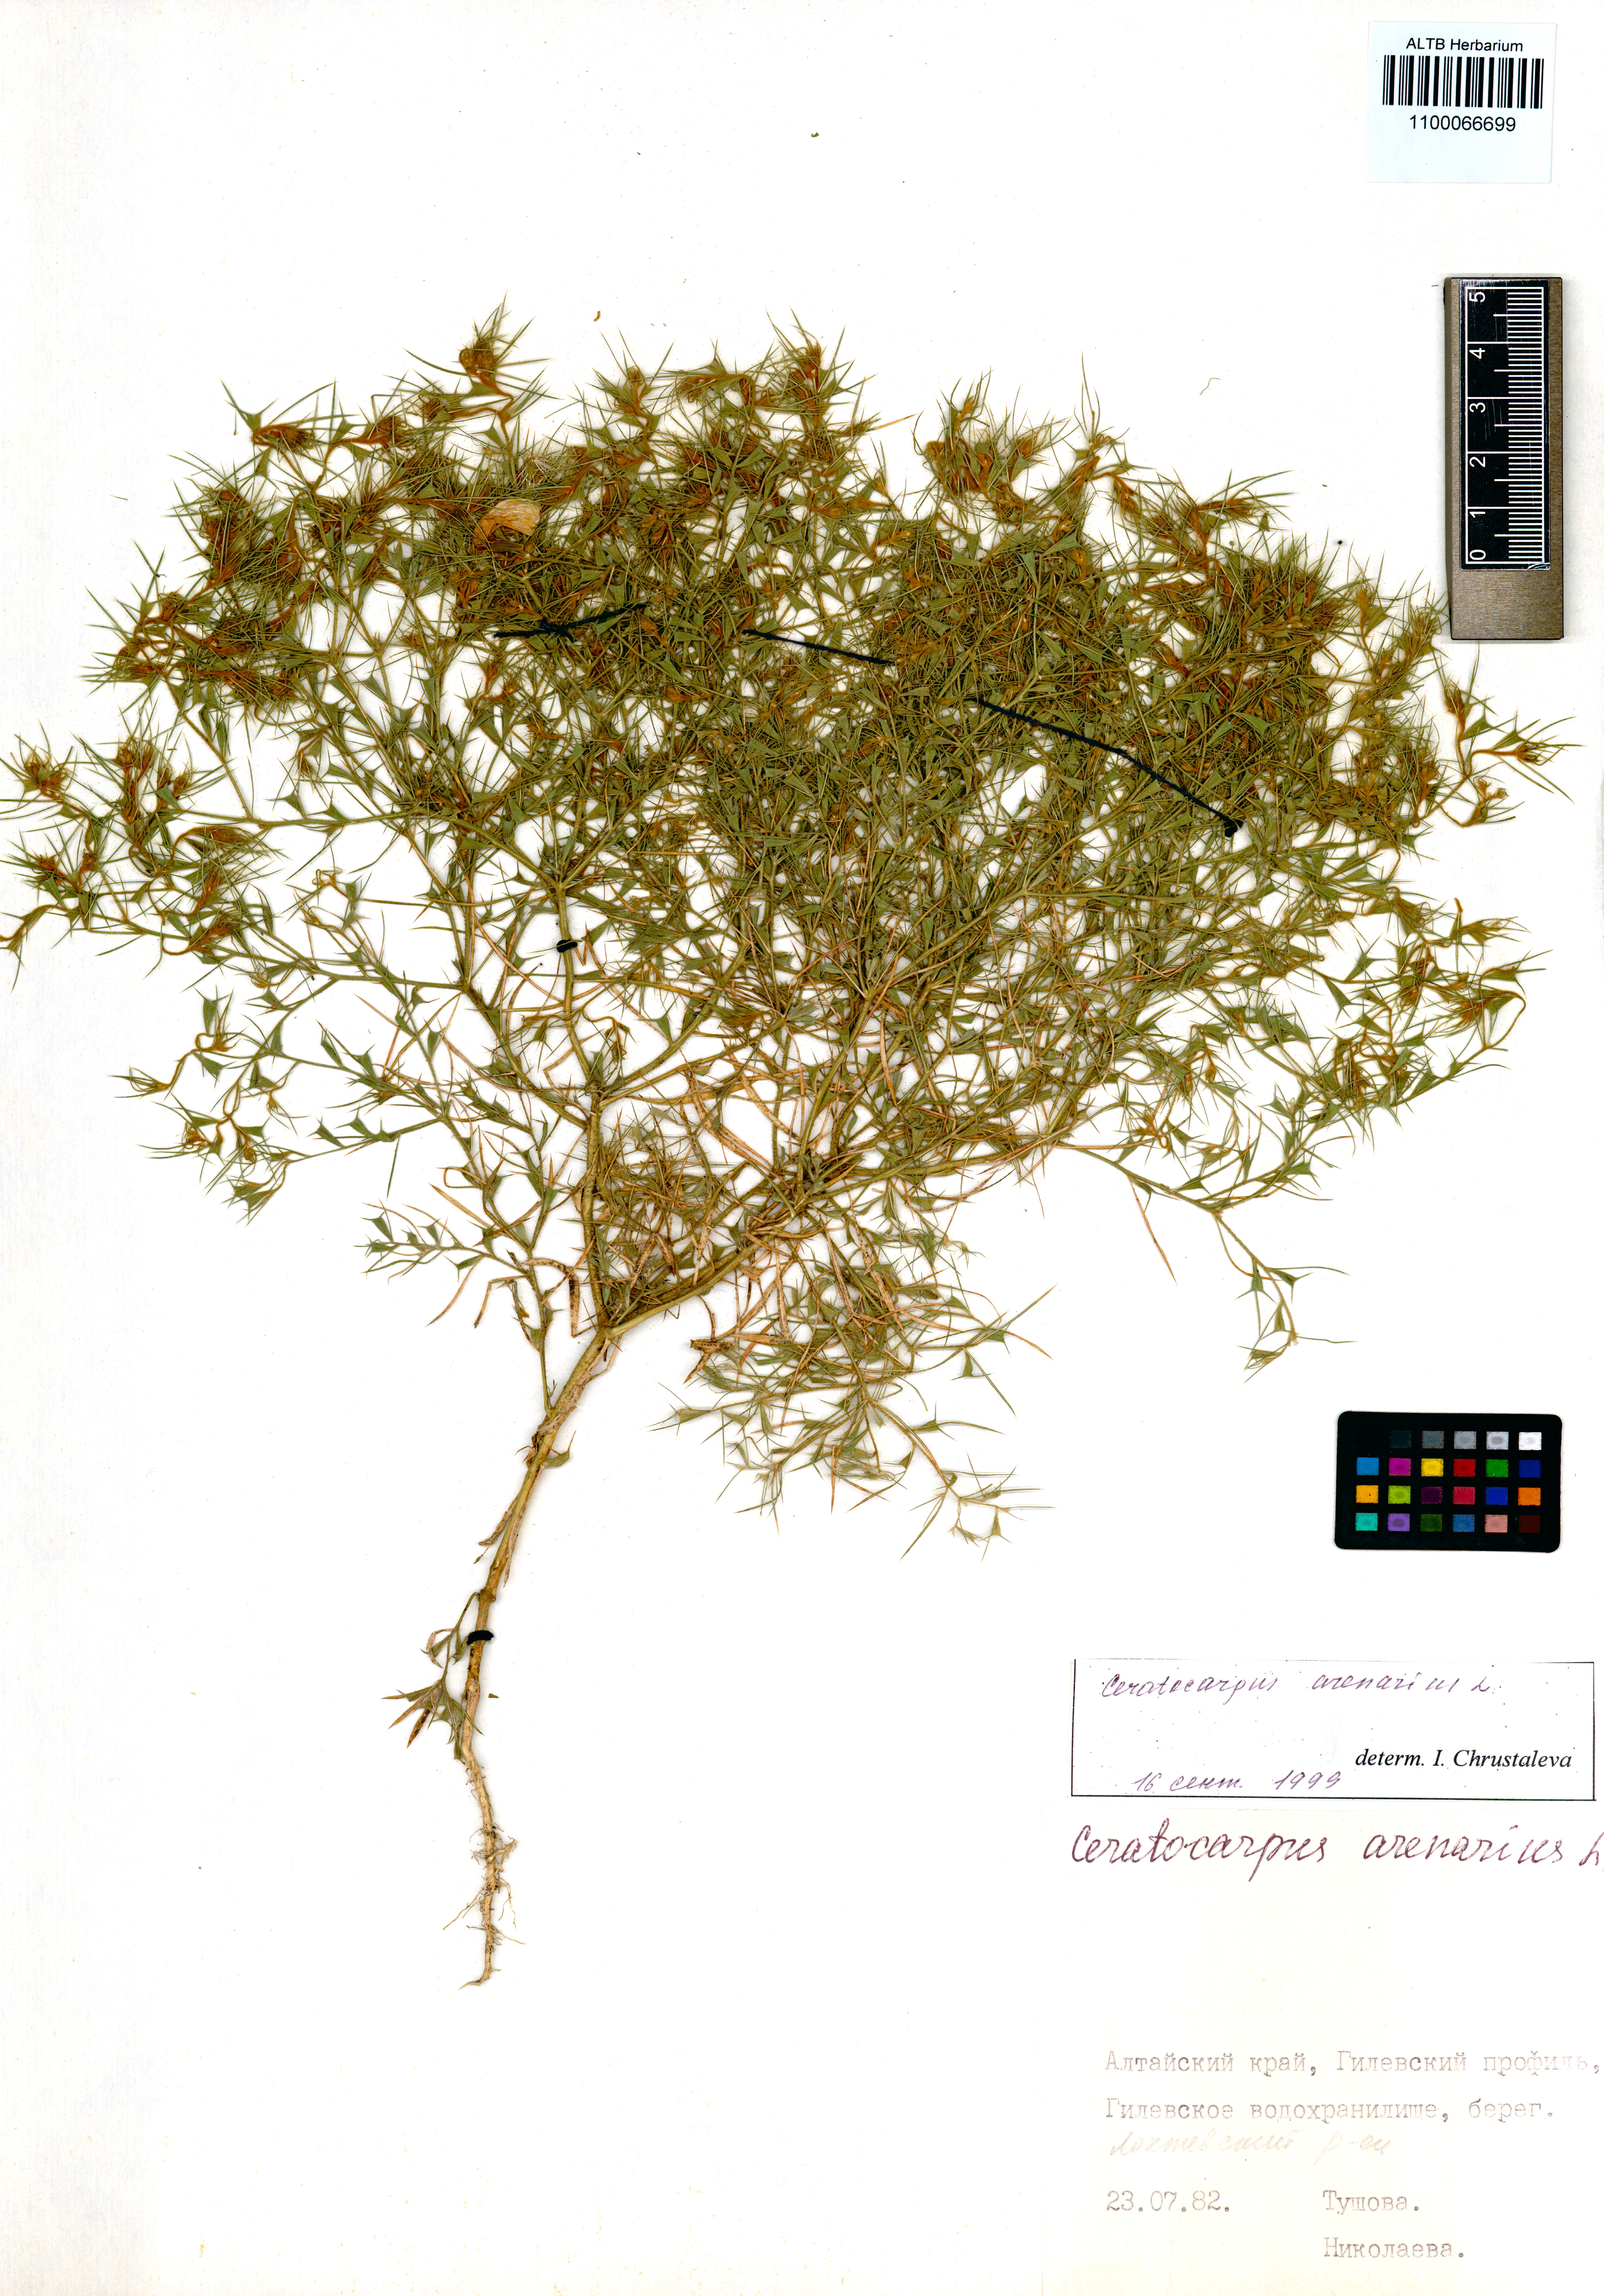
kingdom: Plantae
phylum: Tracheophyta
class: Magnoliopsida
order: Caryophyllales
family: Amaranthaceae
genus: Ceratocarpus
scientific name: Ceratocarpus arenarius
